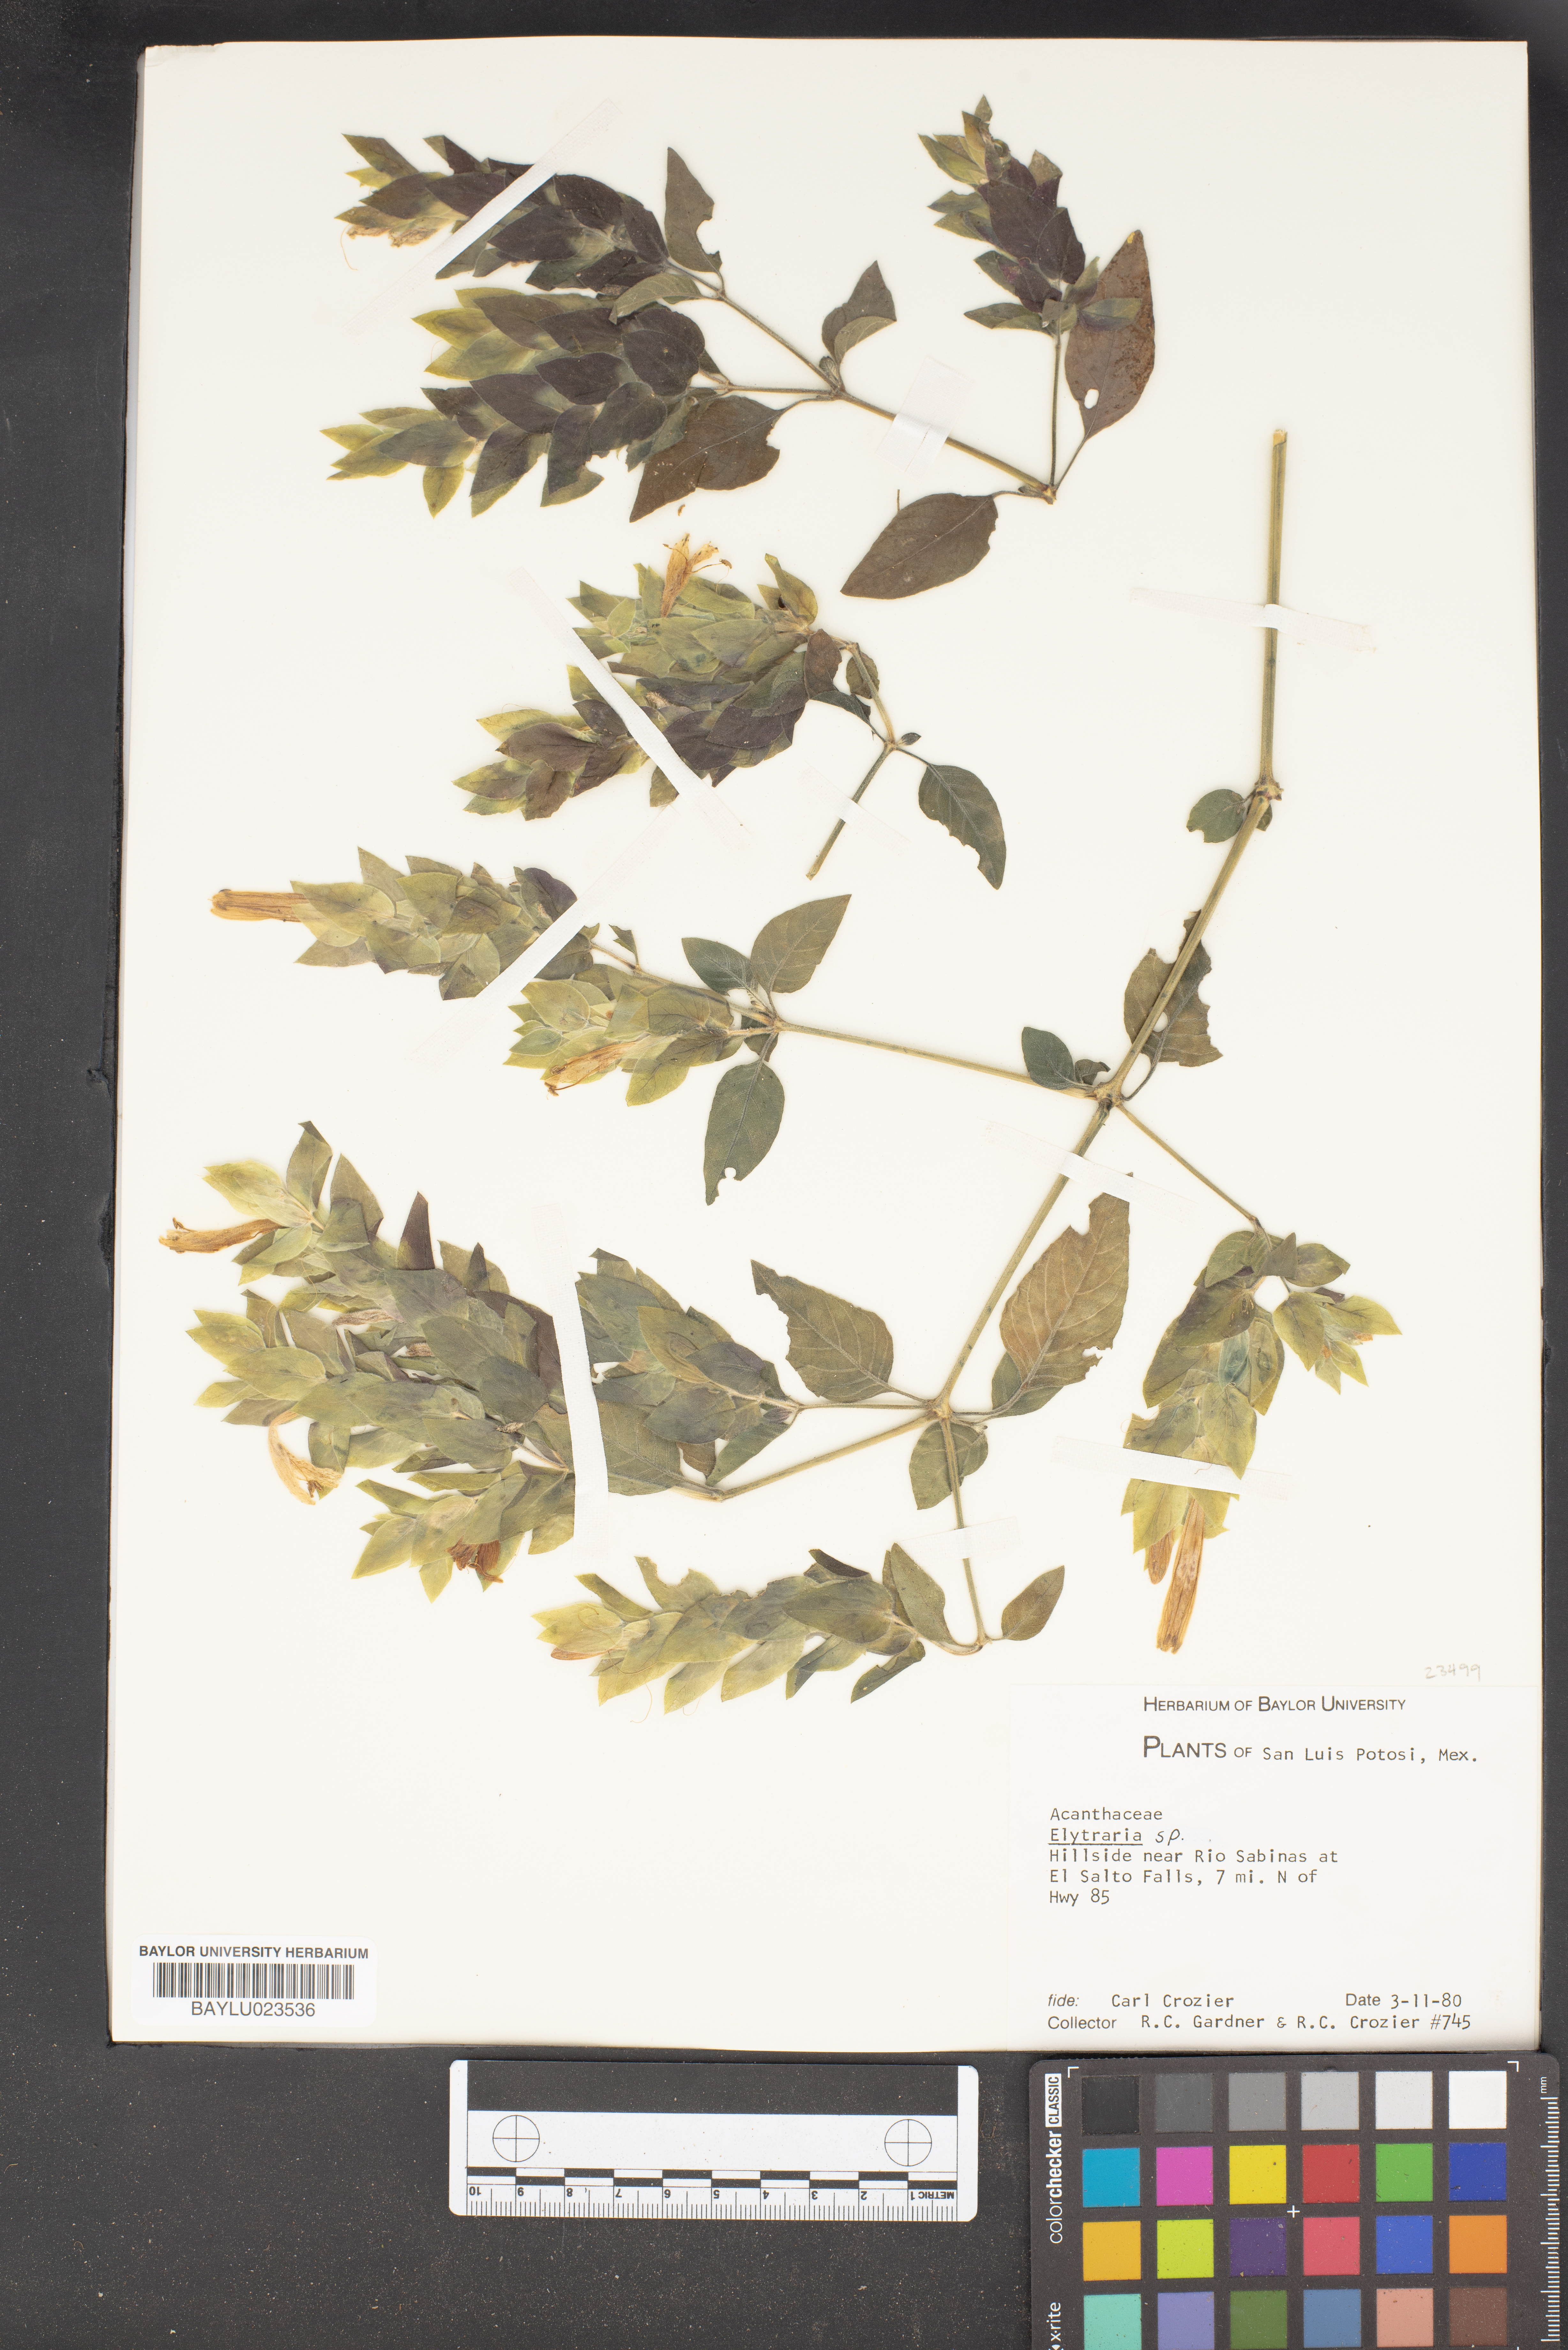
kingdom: Plantae
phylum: Tracheophyta
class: Magnoliopsida
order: Lamiales
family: Acanthaceae
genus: Elytraria
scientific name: Elytraria
